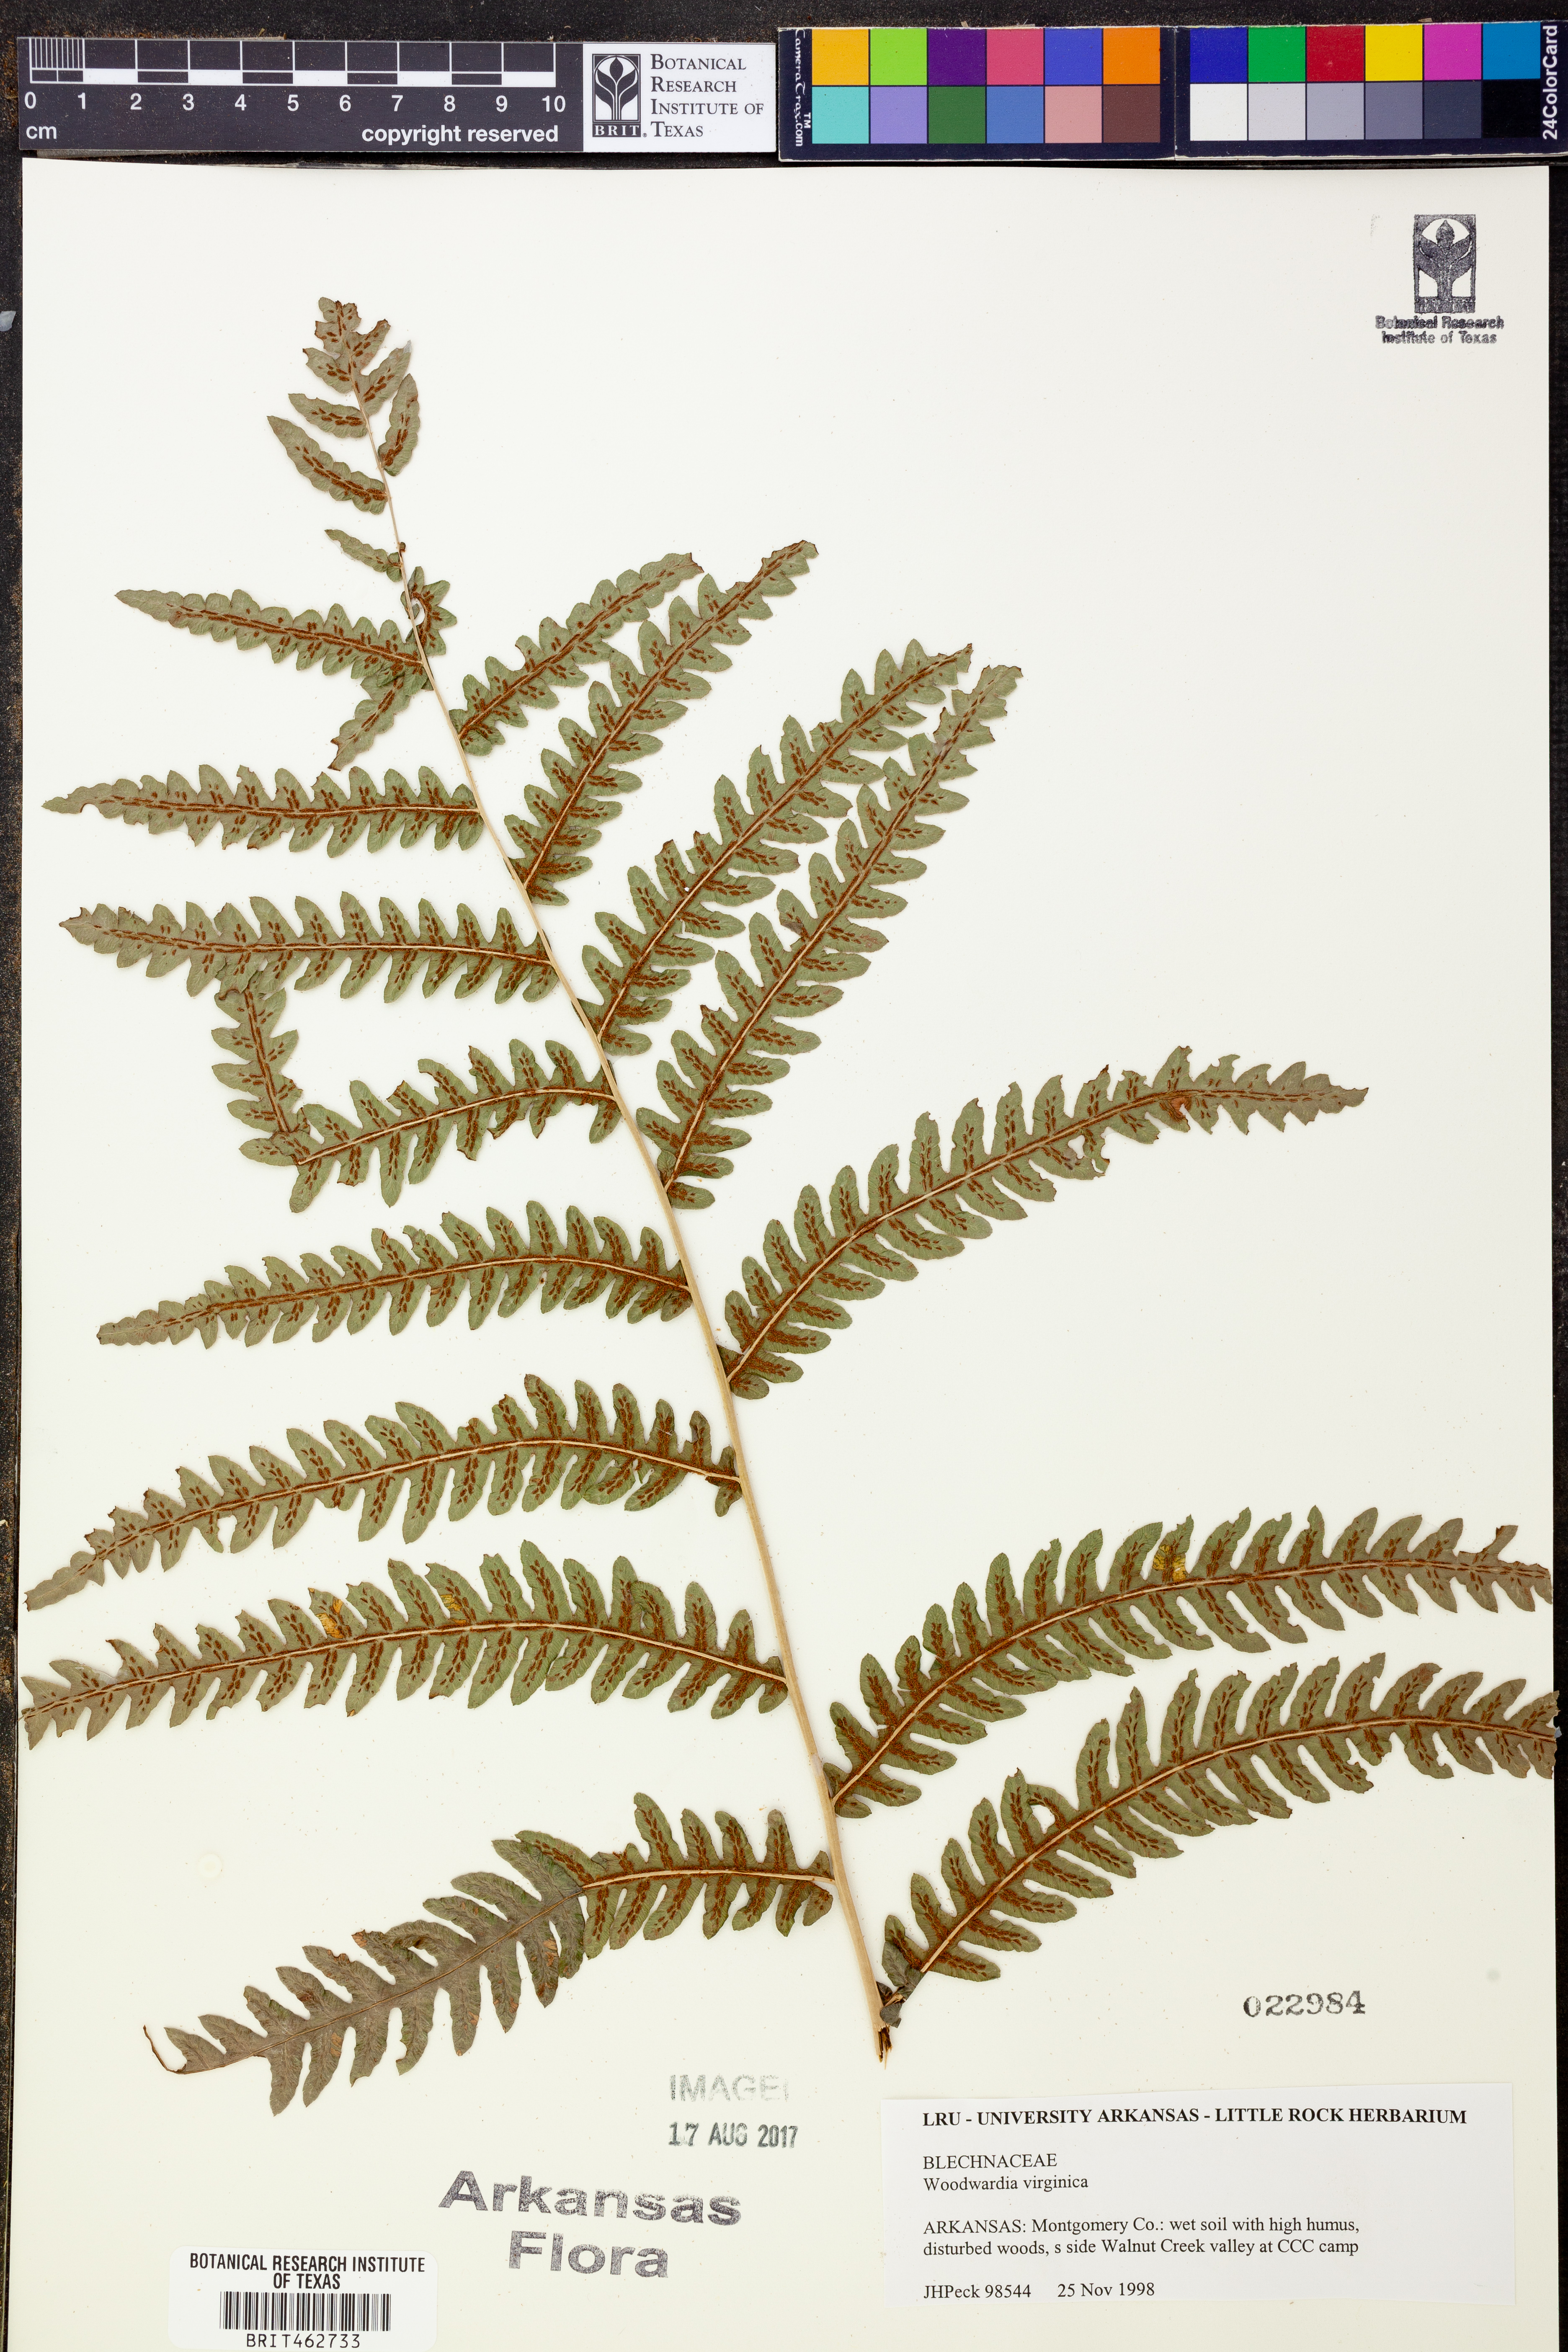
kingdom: Plantae
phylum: Tracheophyta
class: Polypodiopsida
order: Polypodiales
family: Blechnaceae
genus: Anchistea
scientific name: Anchistea virginica
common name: Virginia chain fern
